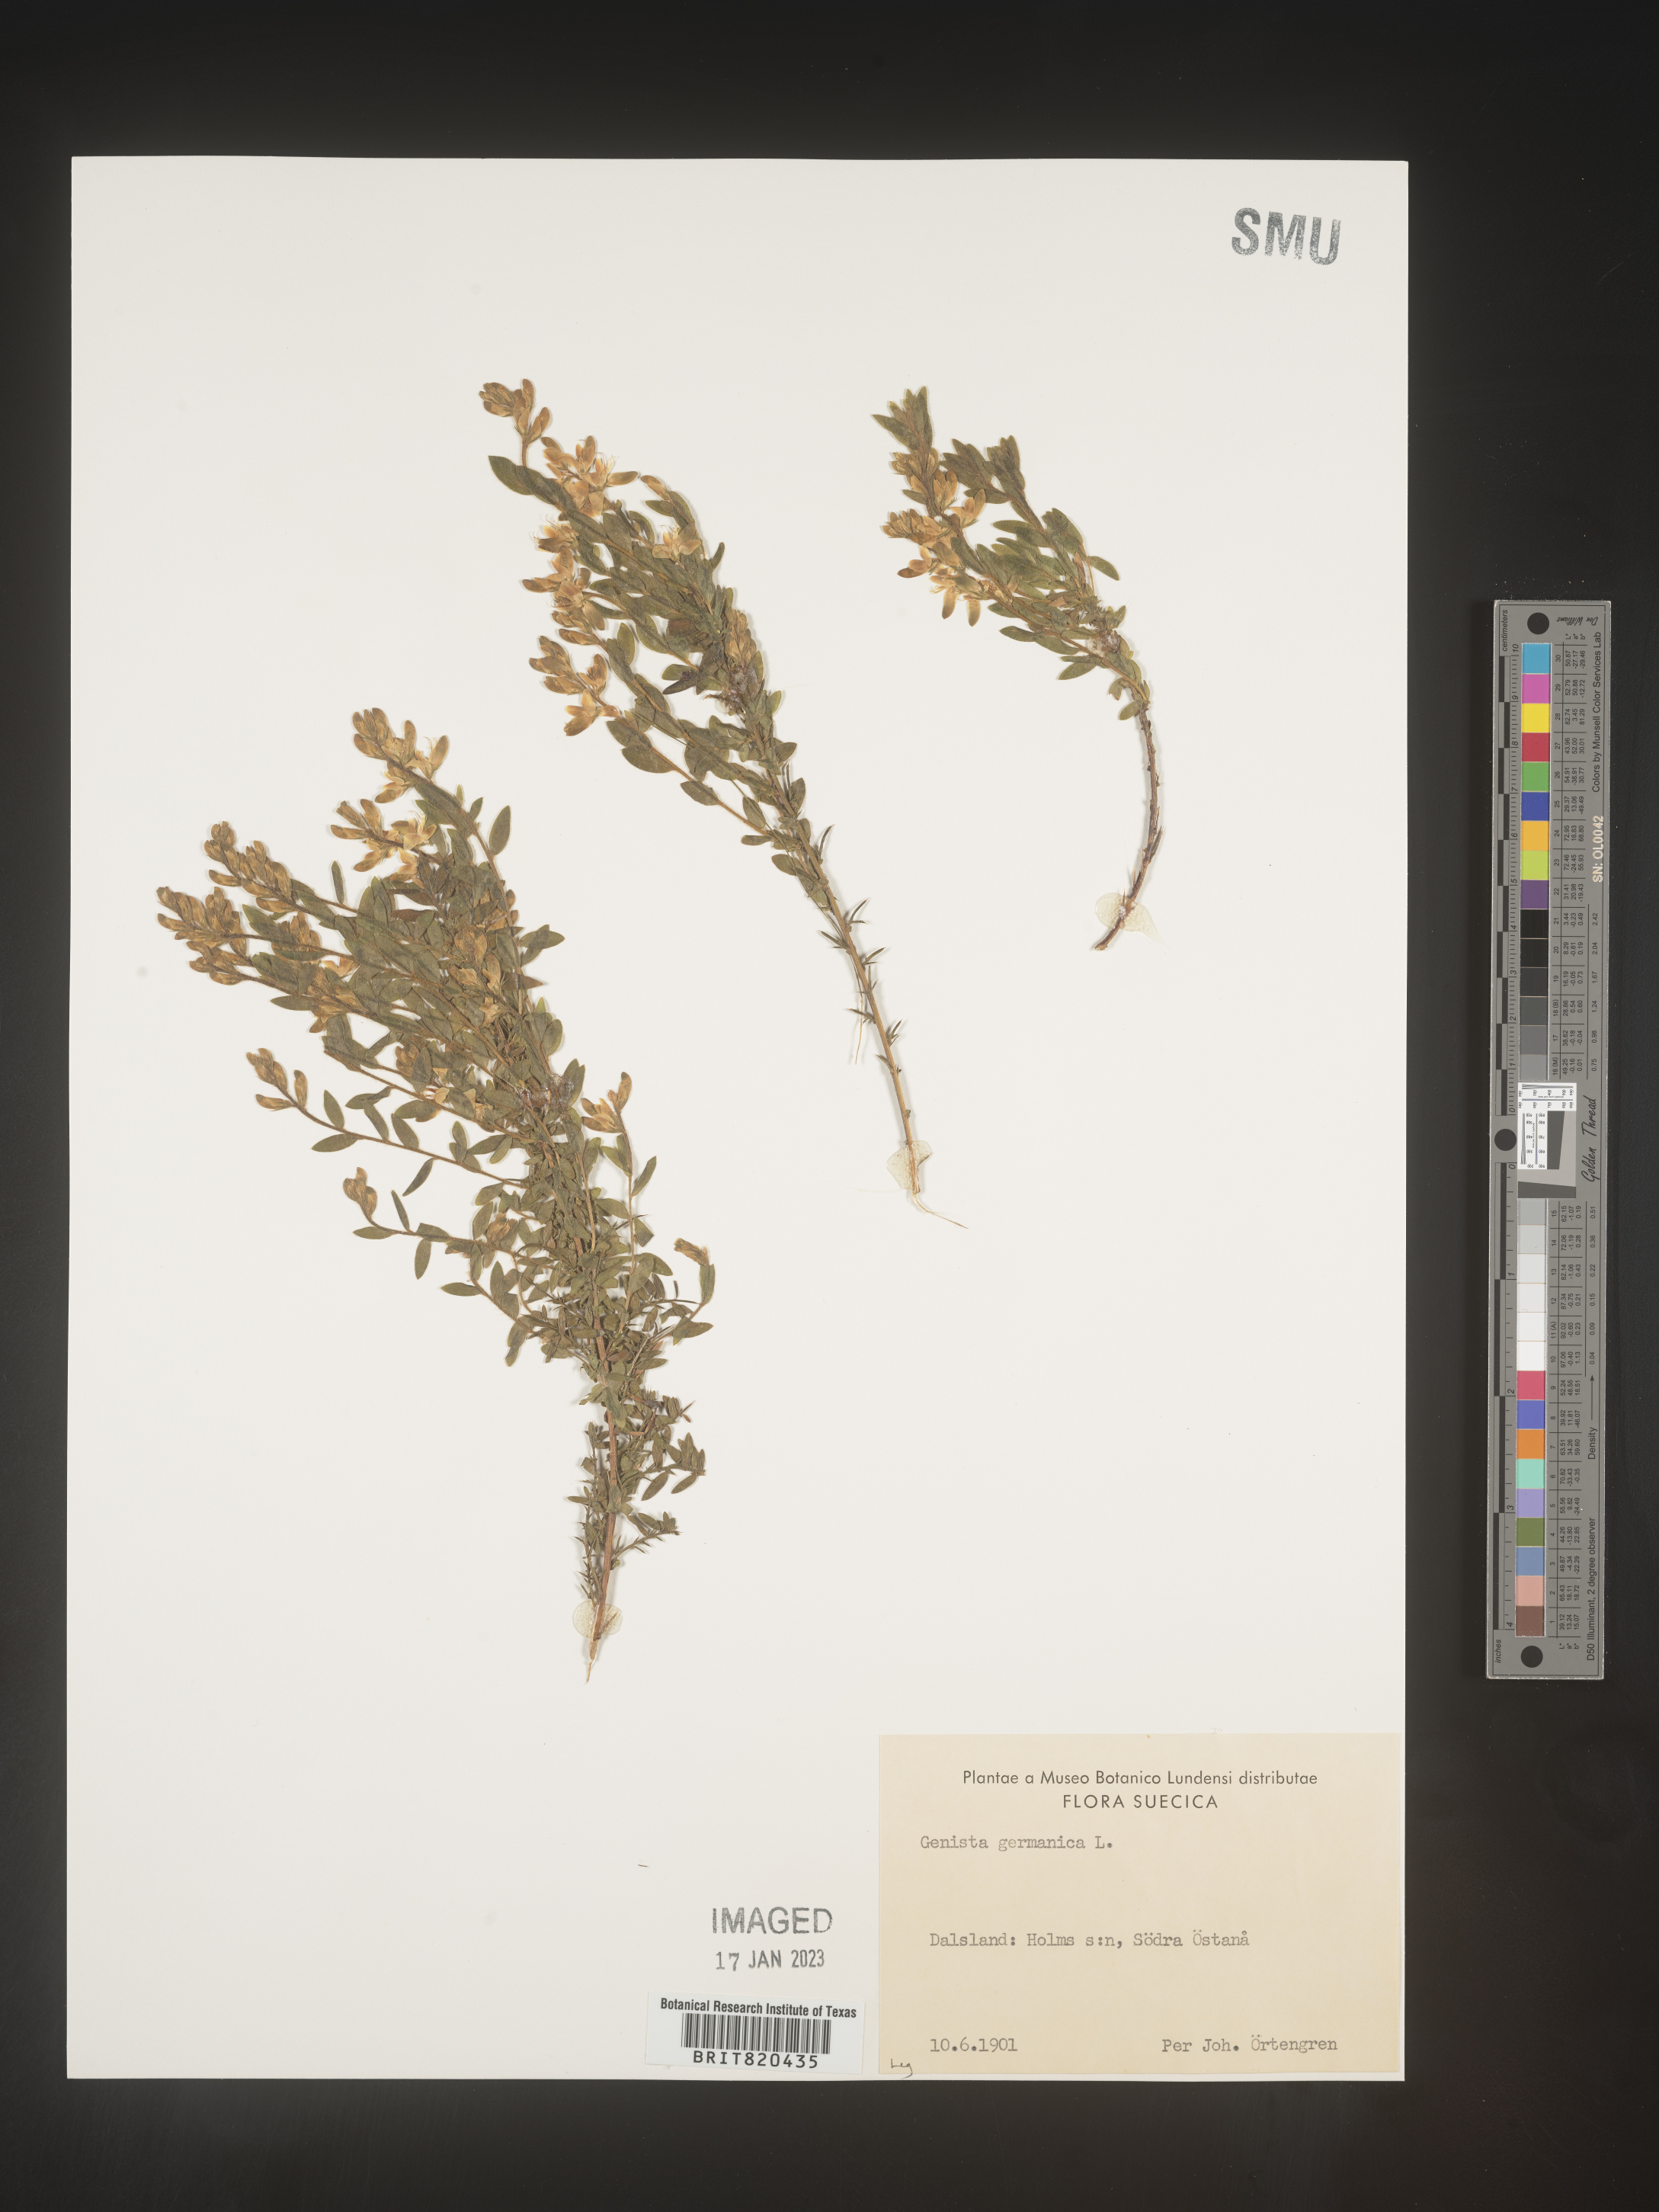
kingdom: Plantae
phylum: Tracheophyta
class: Magnoliopsida
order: Fabales
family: Fabaceae
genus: Genista
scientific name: Genista
